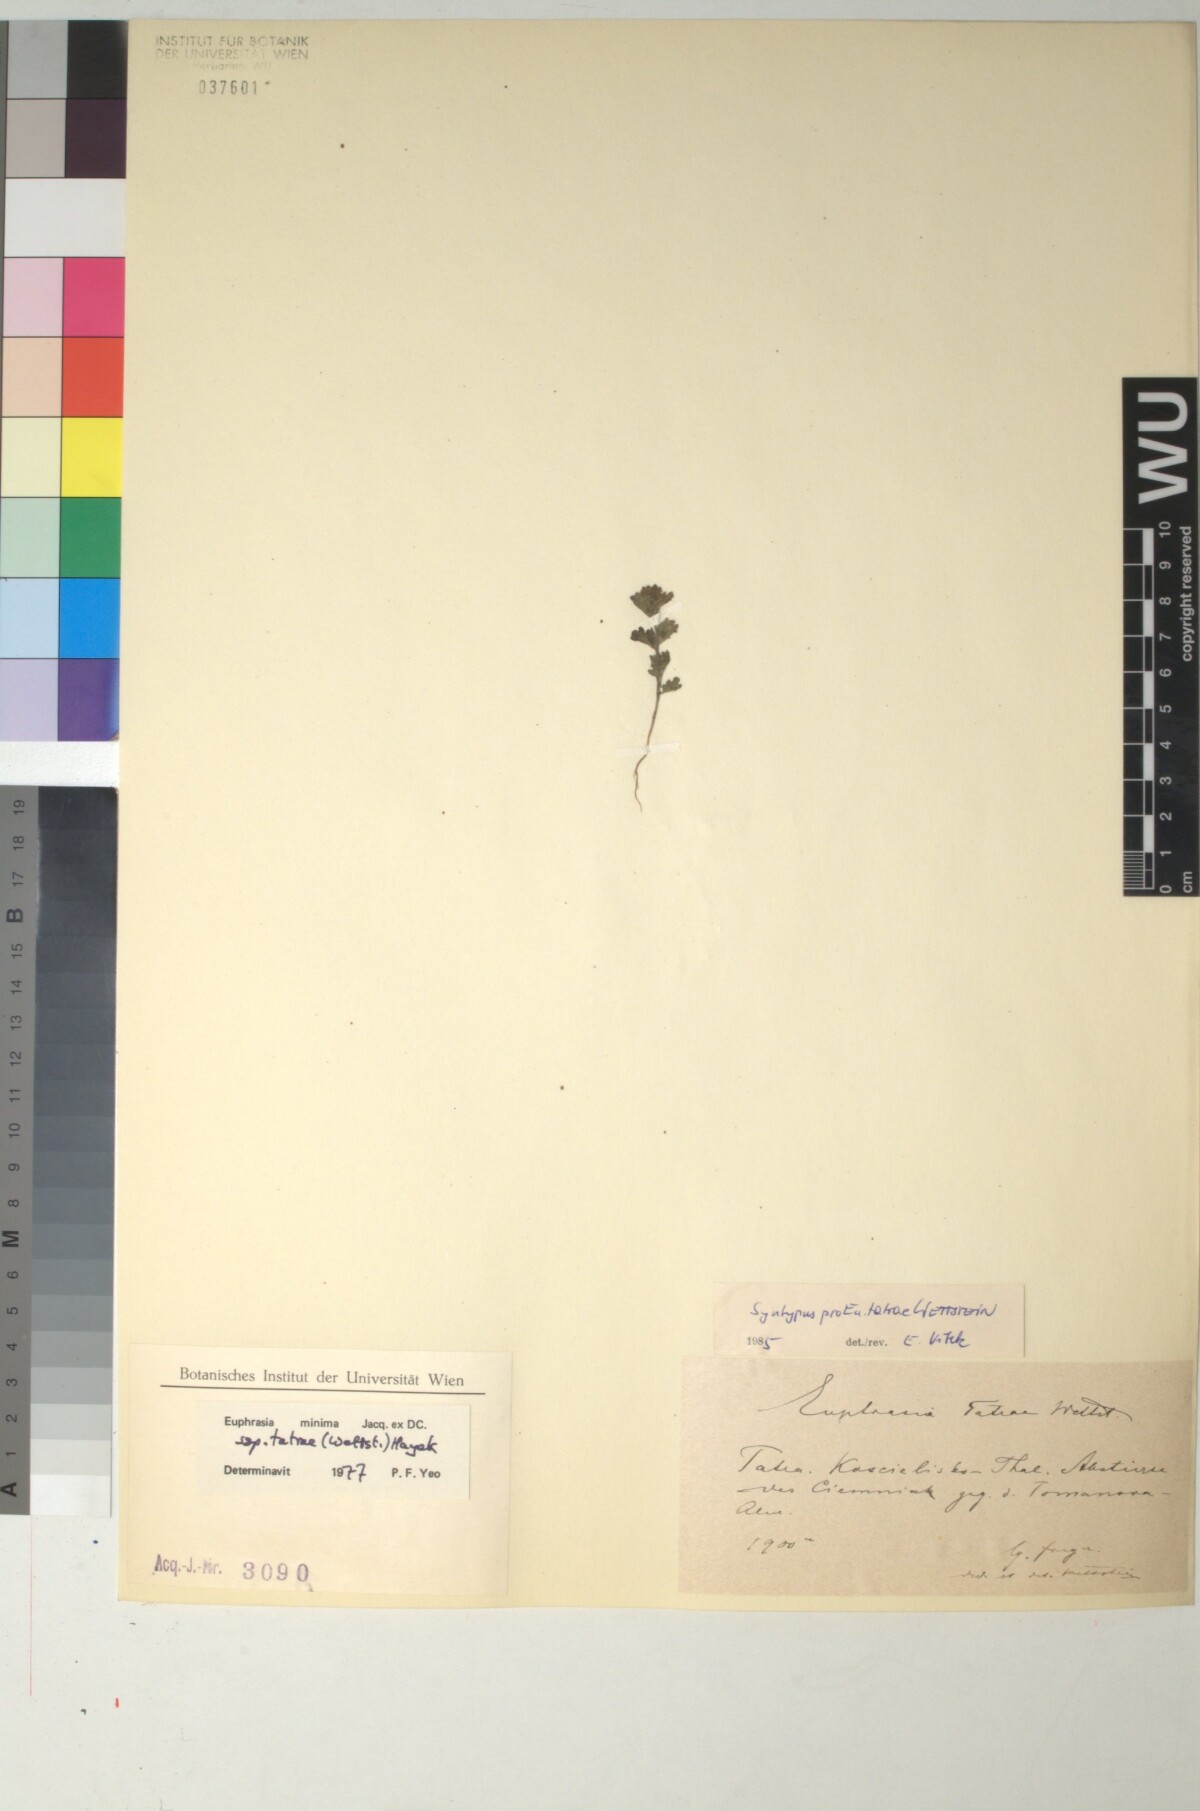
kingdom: Plantae
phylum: Tracheophyta
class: Magnoliopsida
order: Lamiales
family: Orobanchaceae
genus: Euphrasia
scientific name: Euphrasia tatrae
